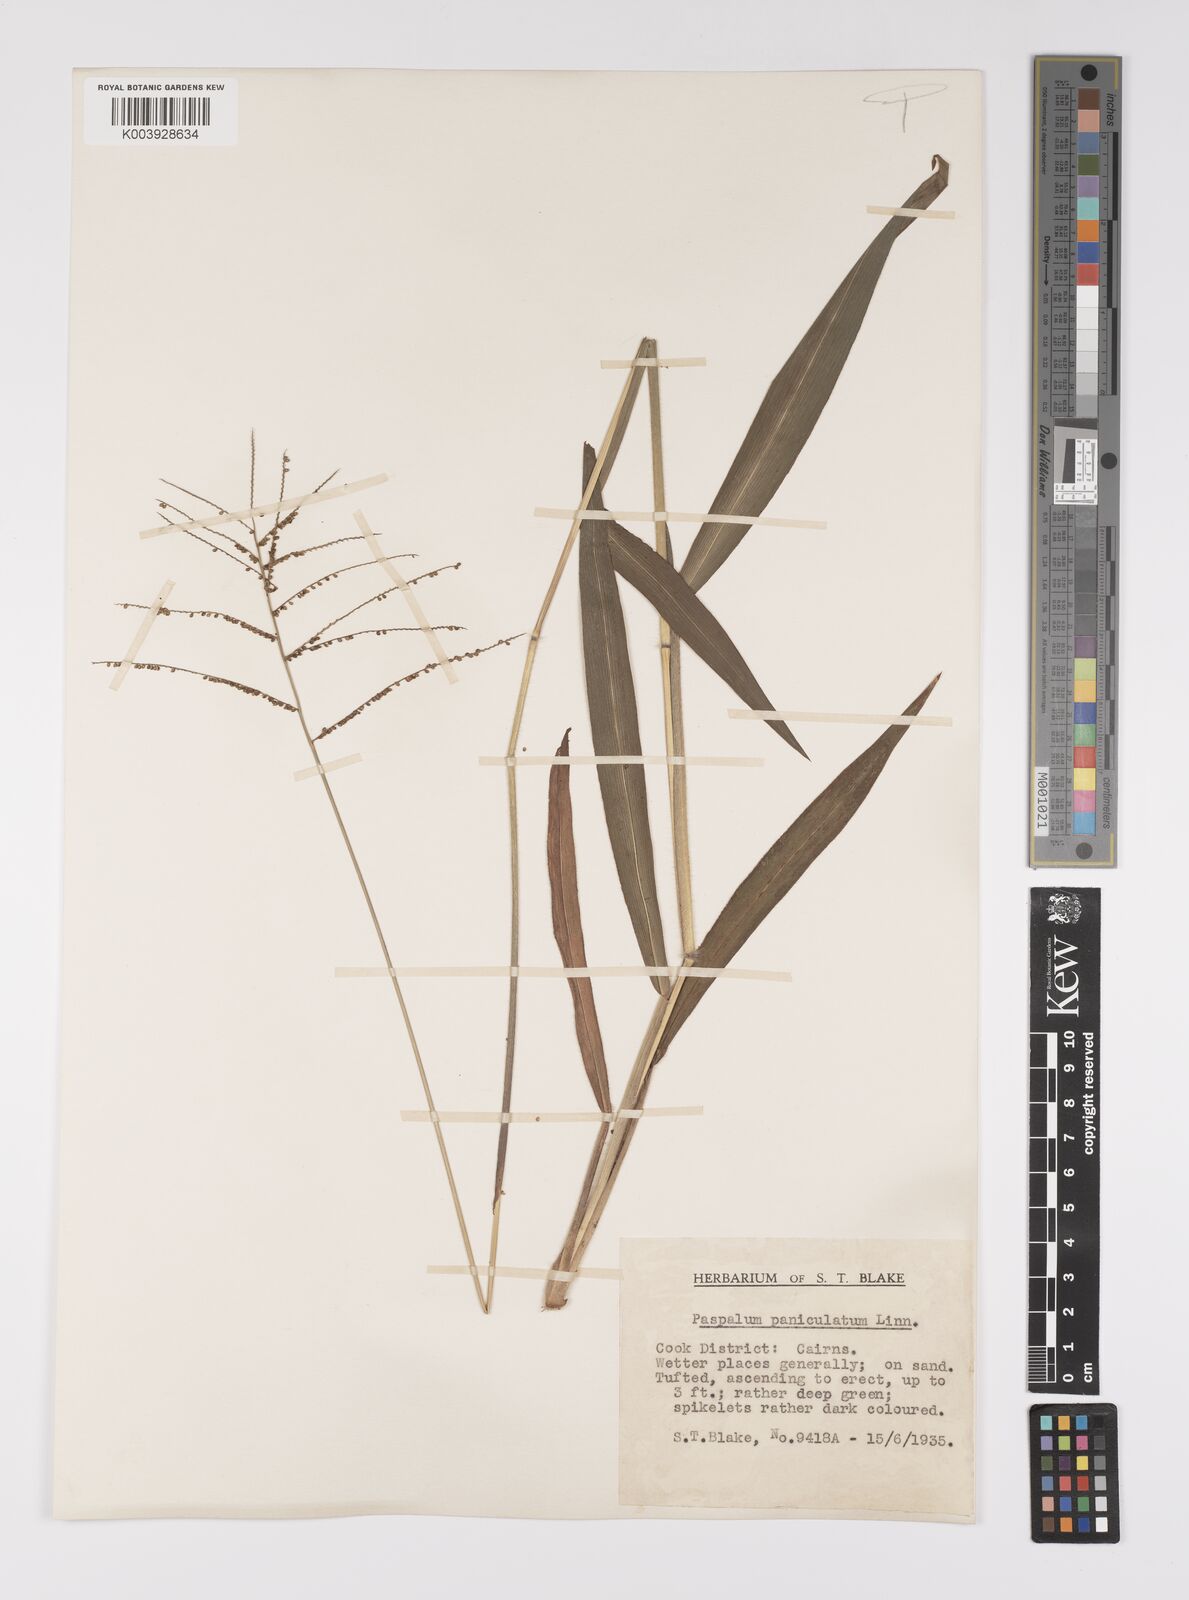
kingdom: Plantae
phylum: Tracheophyta
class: Liliopsida
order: Poales
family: Poaceae
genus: Paspalum
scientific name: Paspalum paniculatum
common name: Arrocillo
